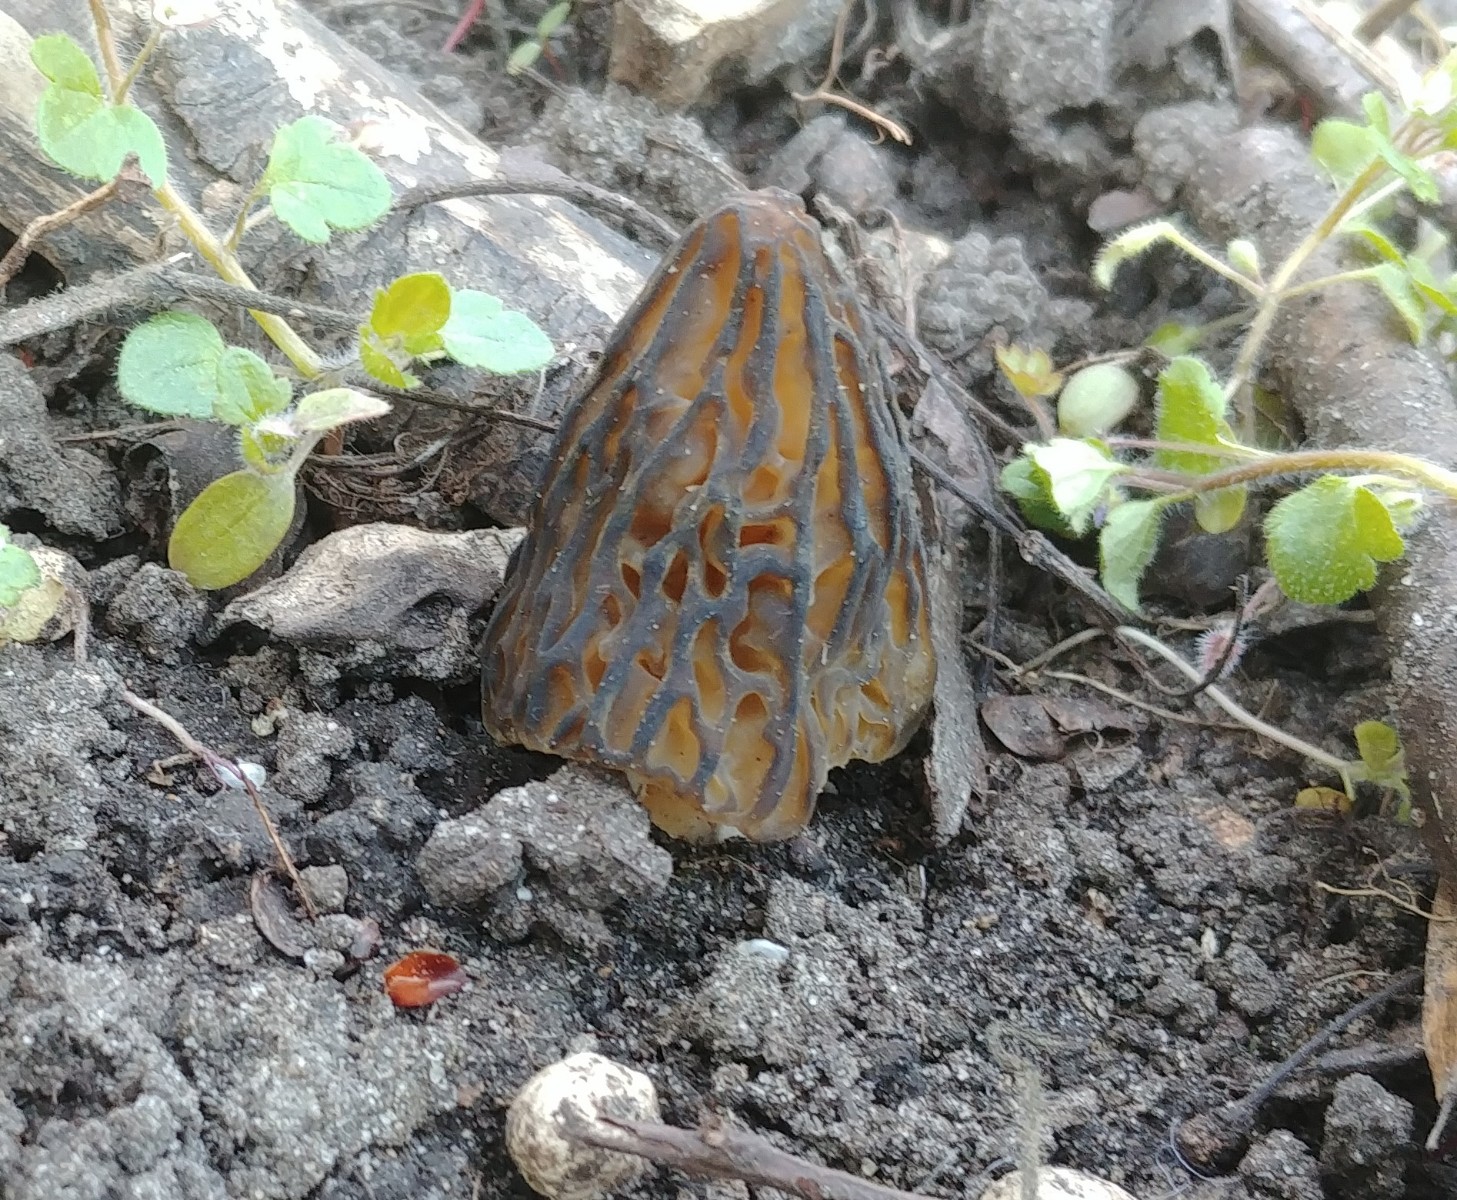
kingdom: Fungi
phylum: Ascomycota
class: Pezizomycetes
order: Pezizales
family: Morchellaceae
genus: Morchella
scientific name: Morchella semilibera
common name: hætte-morkel
